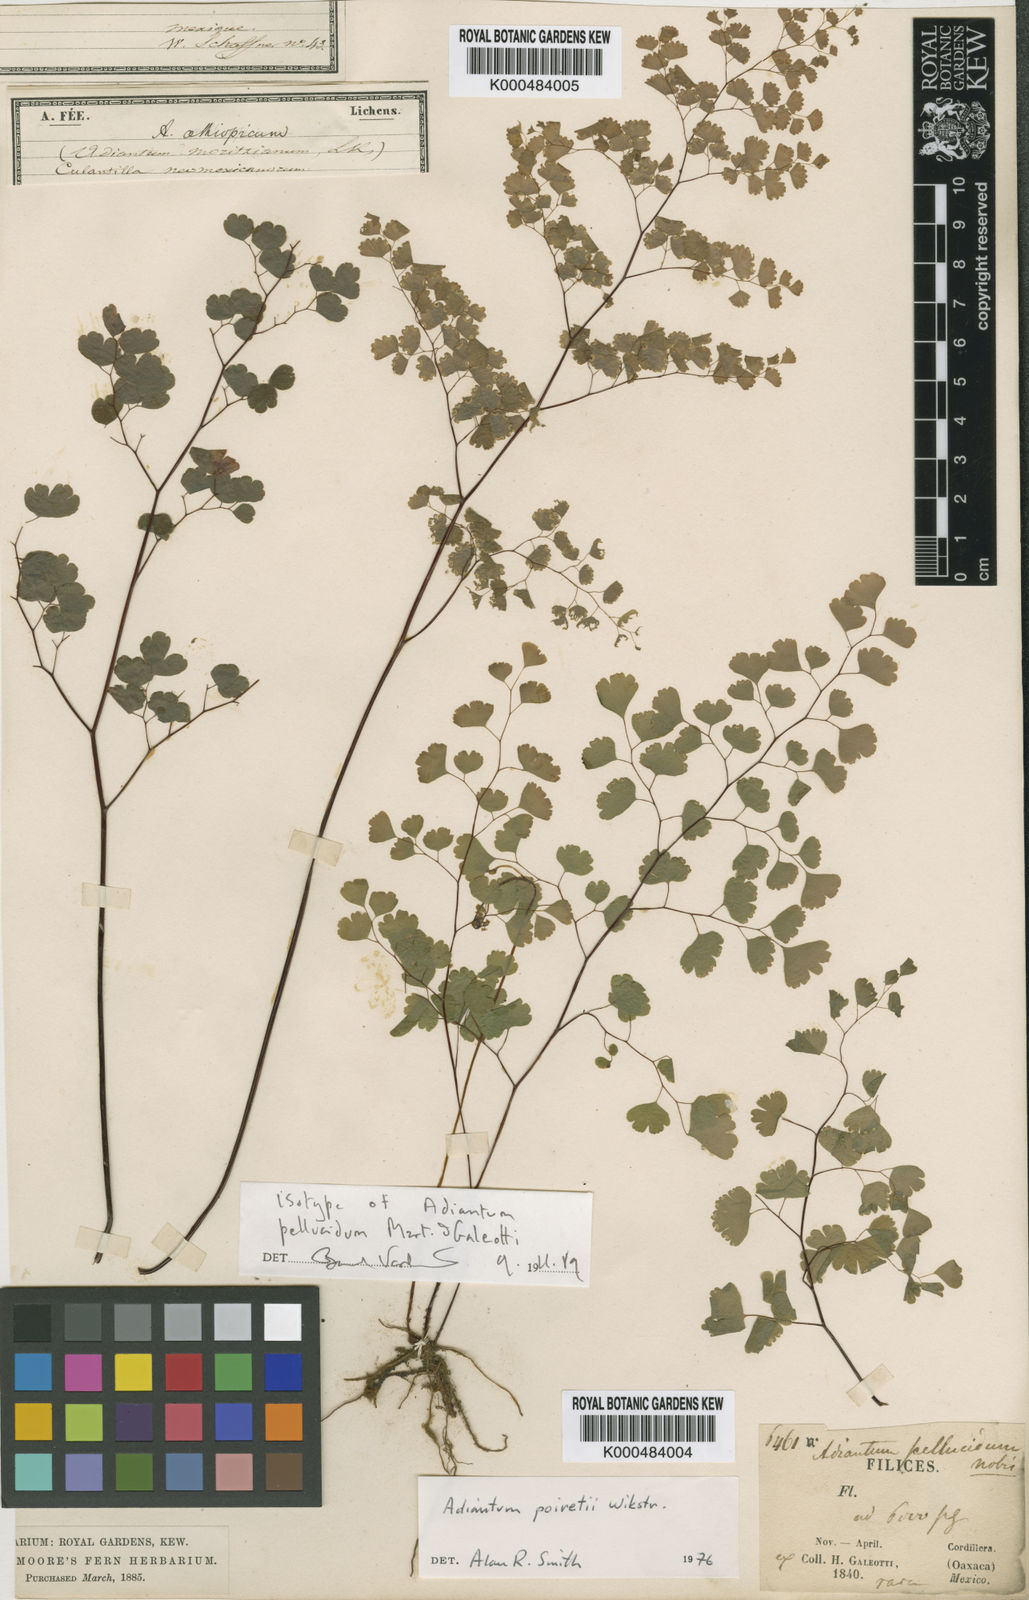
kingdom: Plantae
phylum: Tracheophyta
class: Polypodiopsida
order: Polypodiales
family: Pteridaceae
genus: Adiantum
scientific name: Adiantum thalictroides
